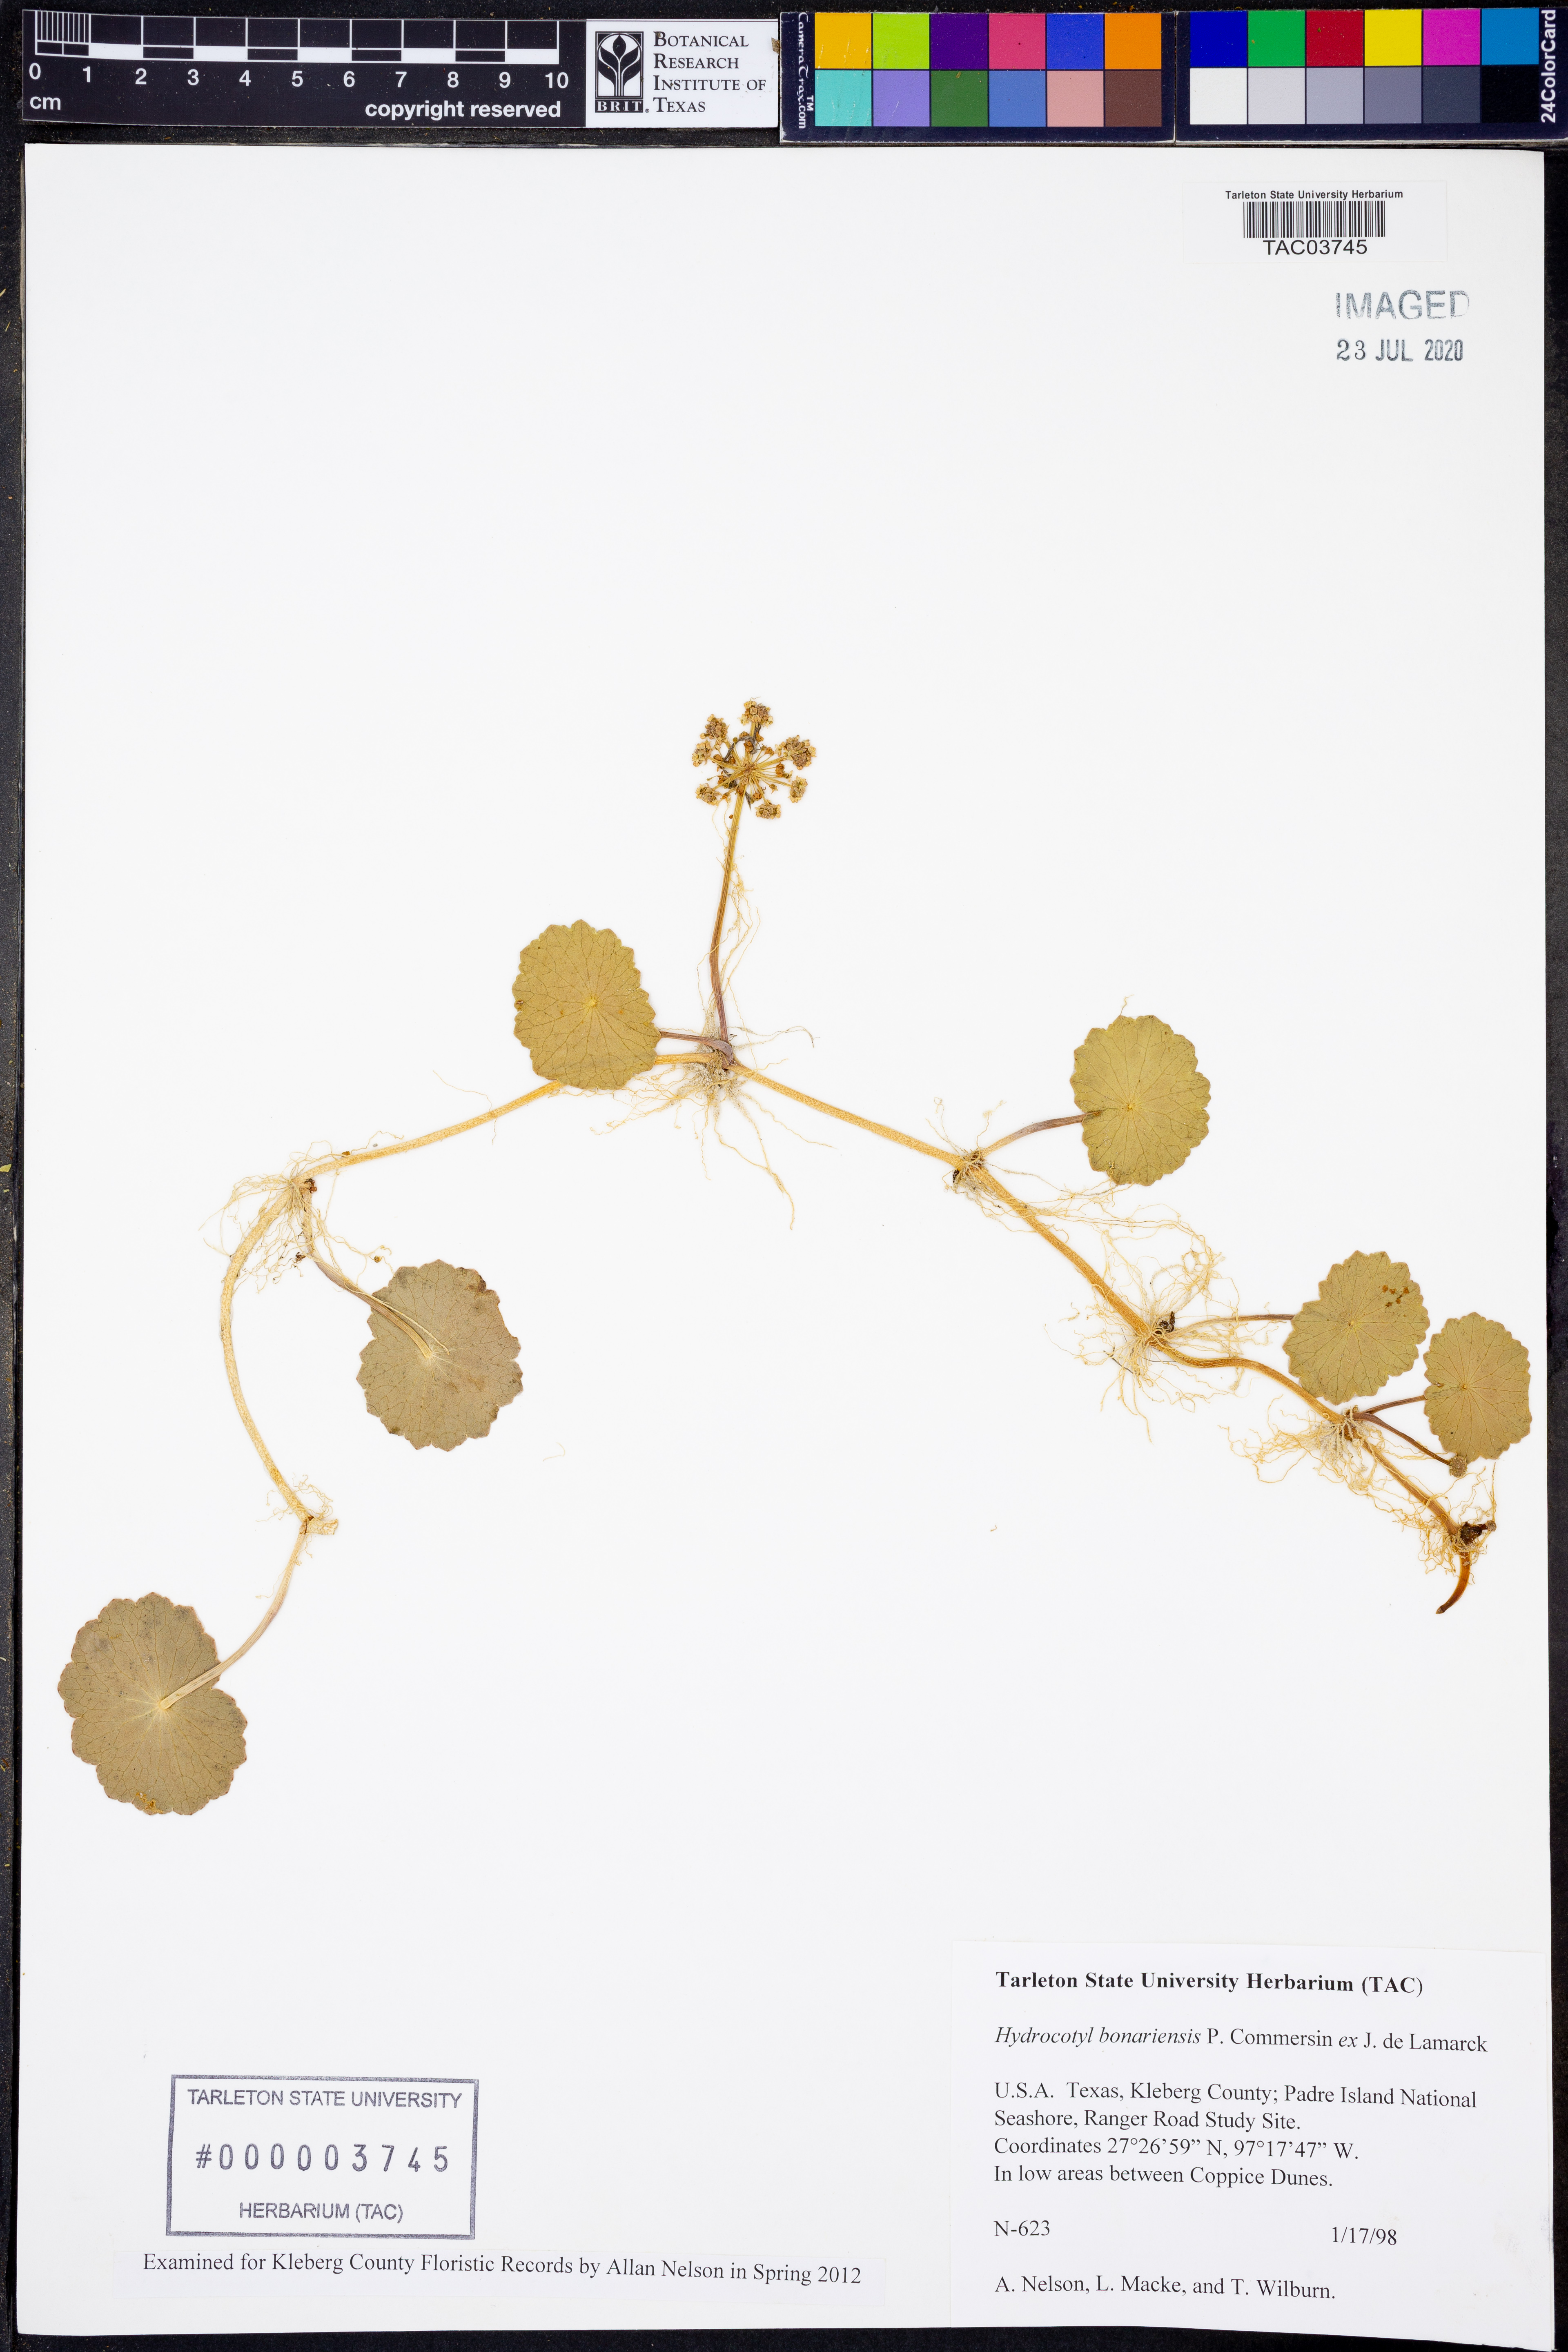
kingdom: Plantae
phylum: Tracheophyta
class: Magnoliopsida
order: Apiales
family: Araliaceae
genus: Hydrocotyle
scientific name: Hydrocotyle bonariensis
